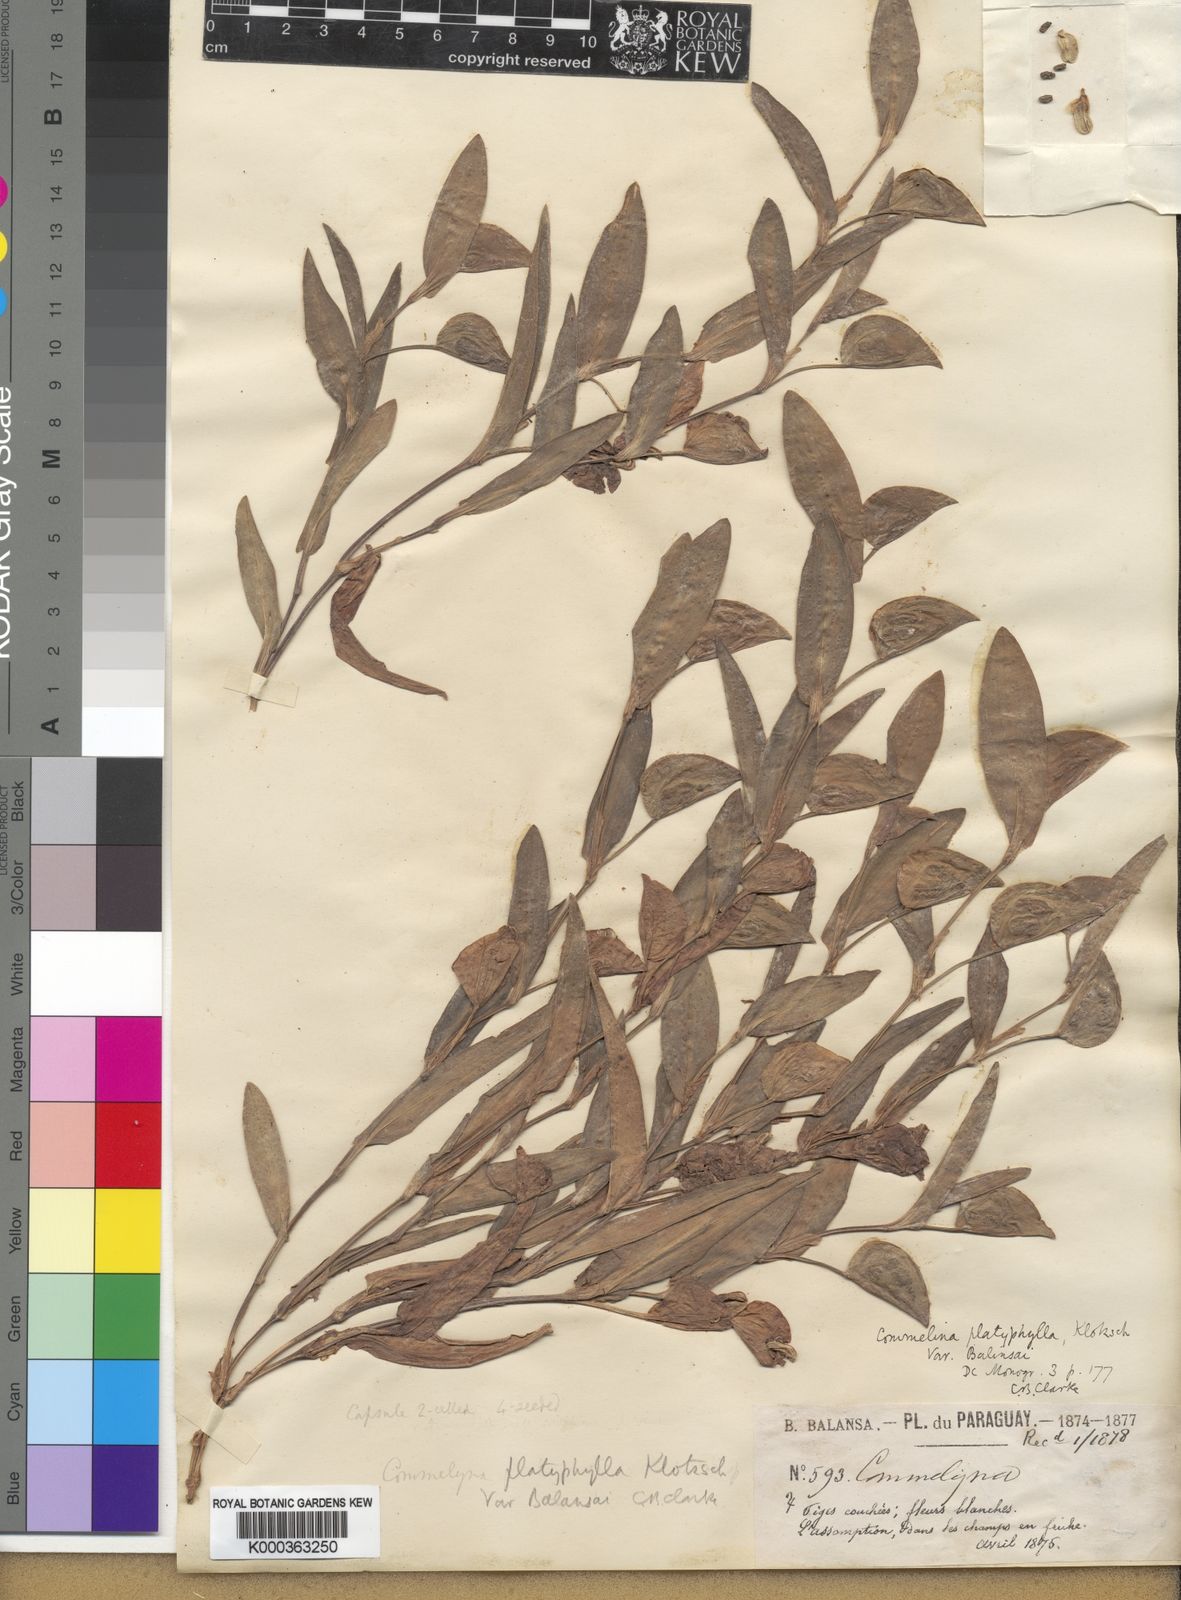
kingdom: Plantae
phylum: Tracheophyta
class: Liliopsida
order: Commelinales
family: Commelinaceae
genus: Commelina
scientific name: Commelina platyphylla
